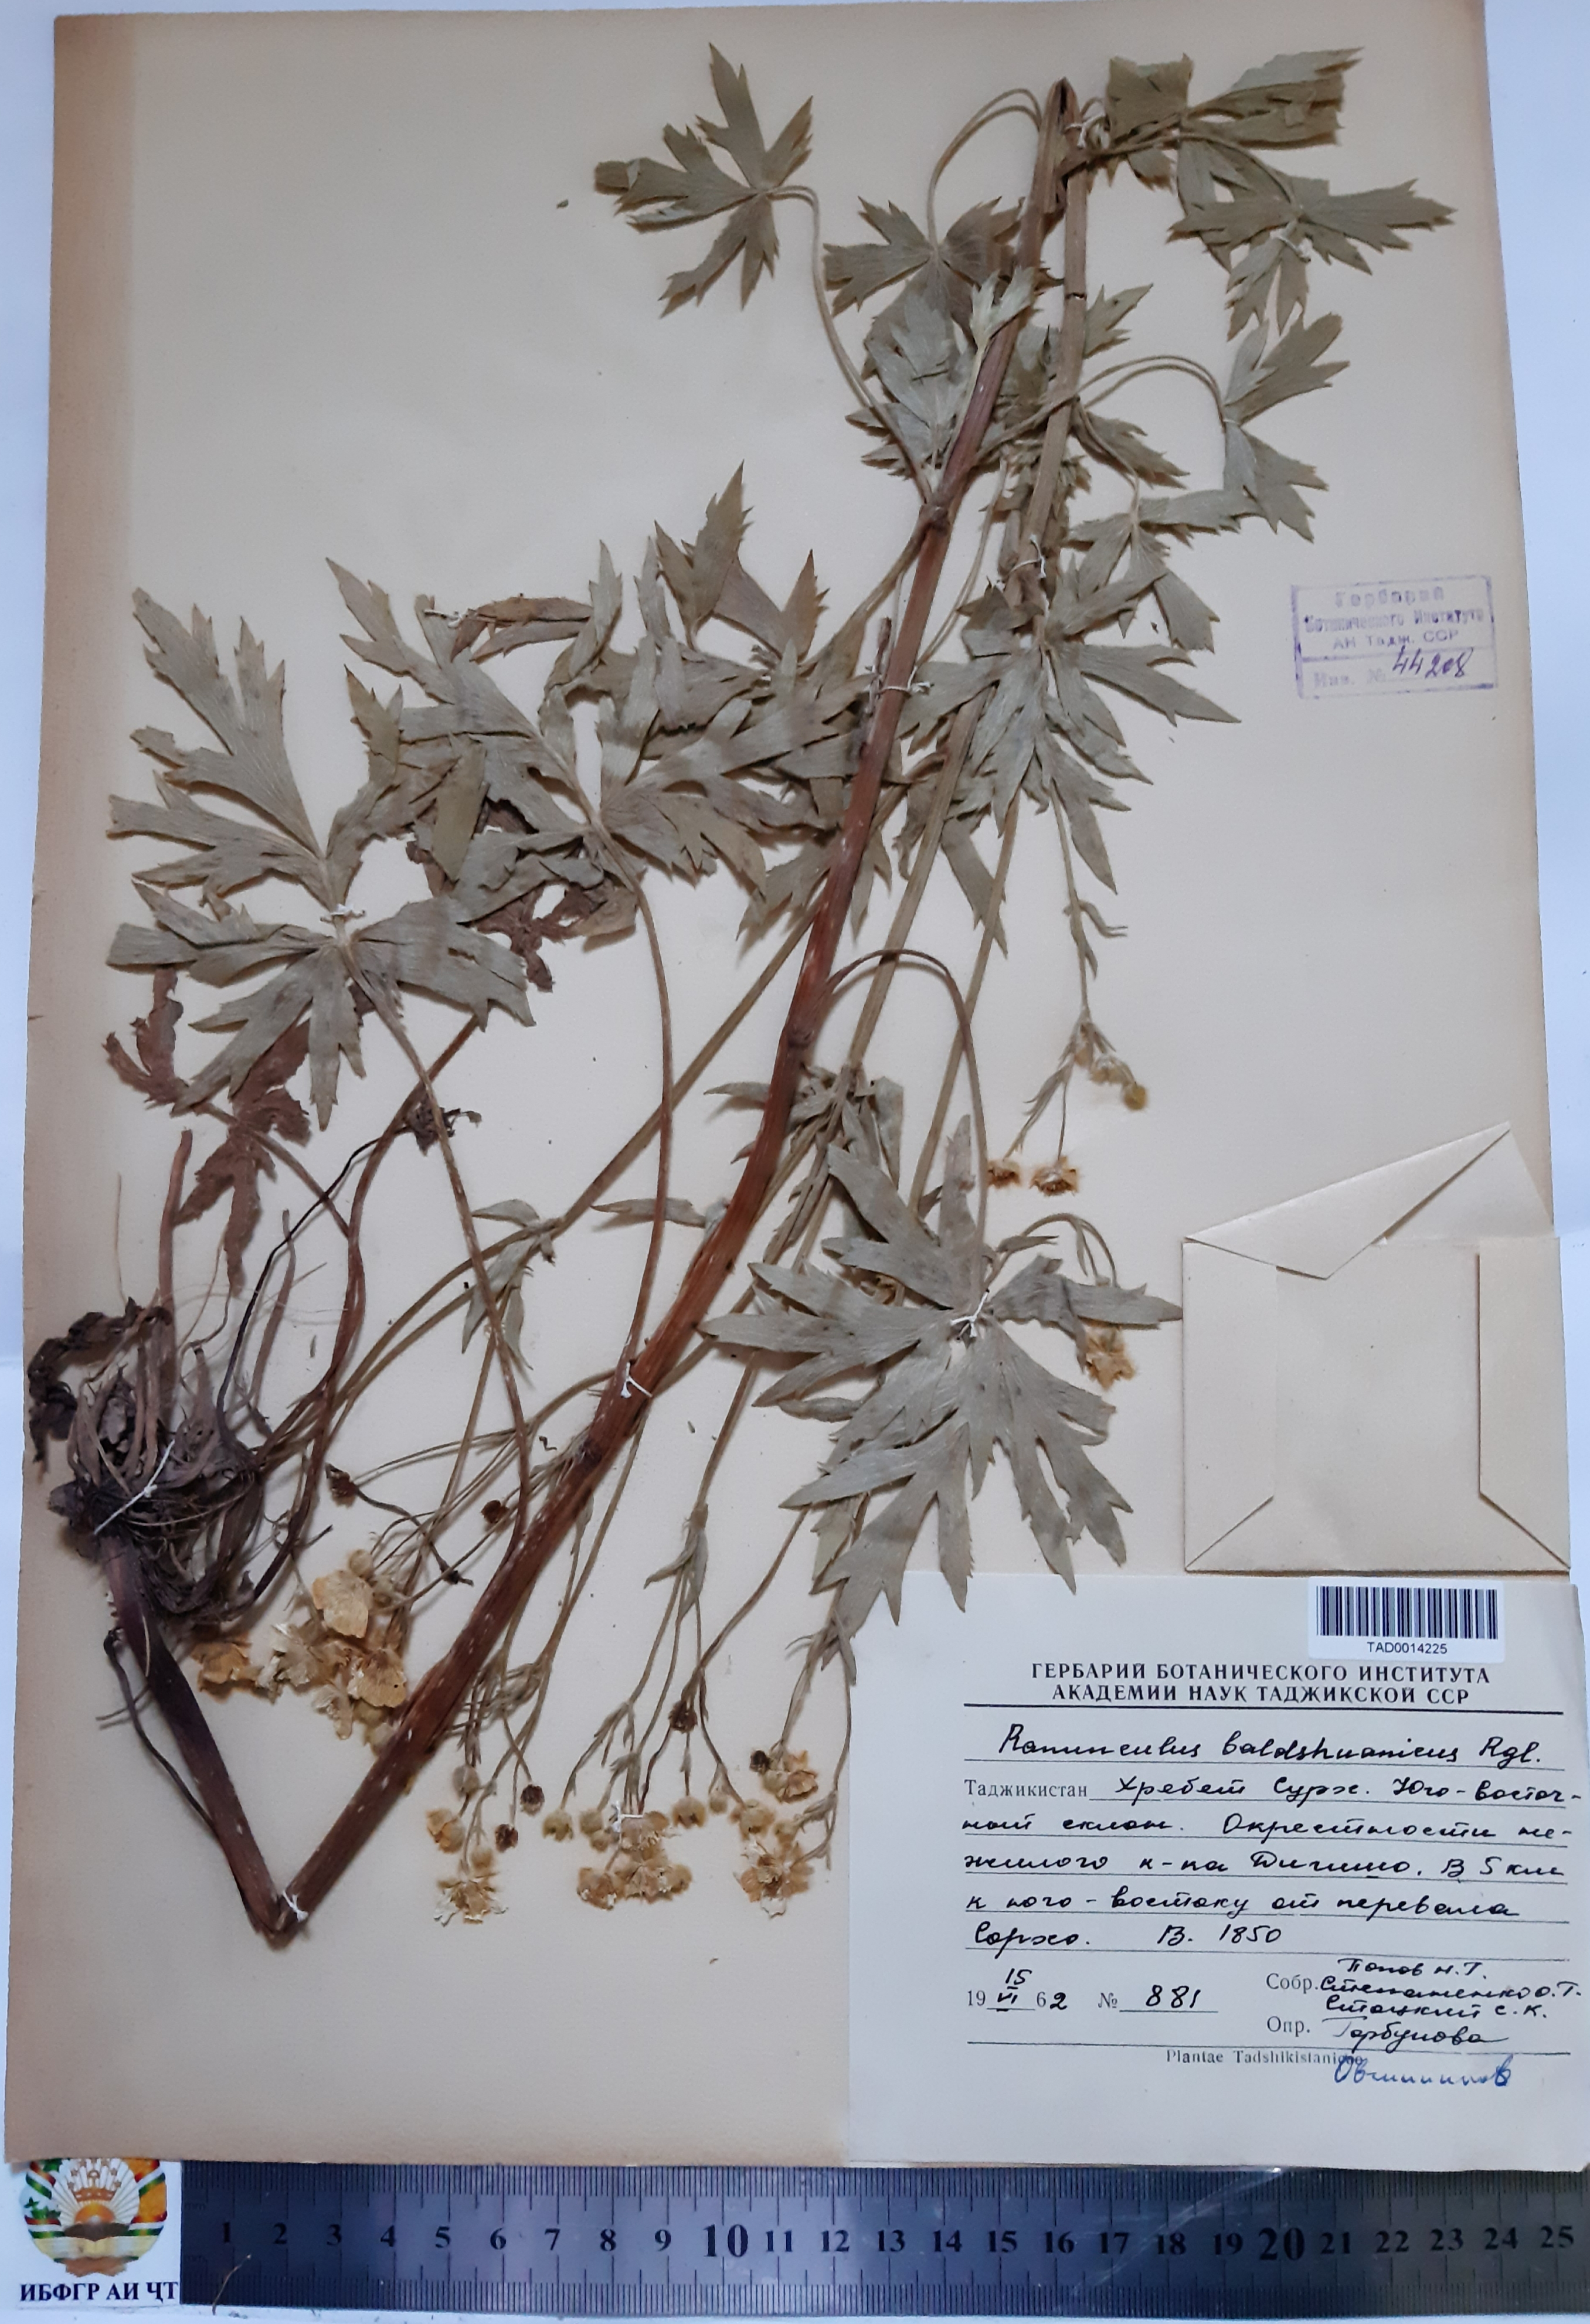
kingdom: Plantae
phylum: Tracheophyta
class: Magnoliopsida
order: Ranunculales
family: Ranunculaceae
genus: Ranunculus
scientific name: Ranunculus baldshuanicus
